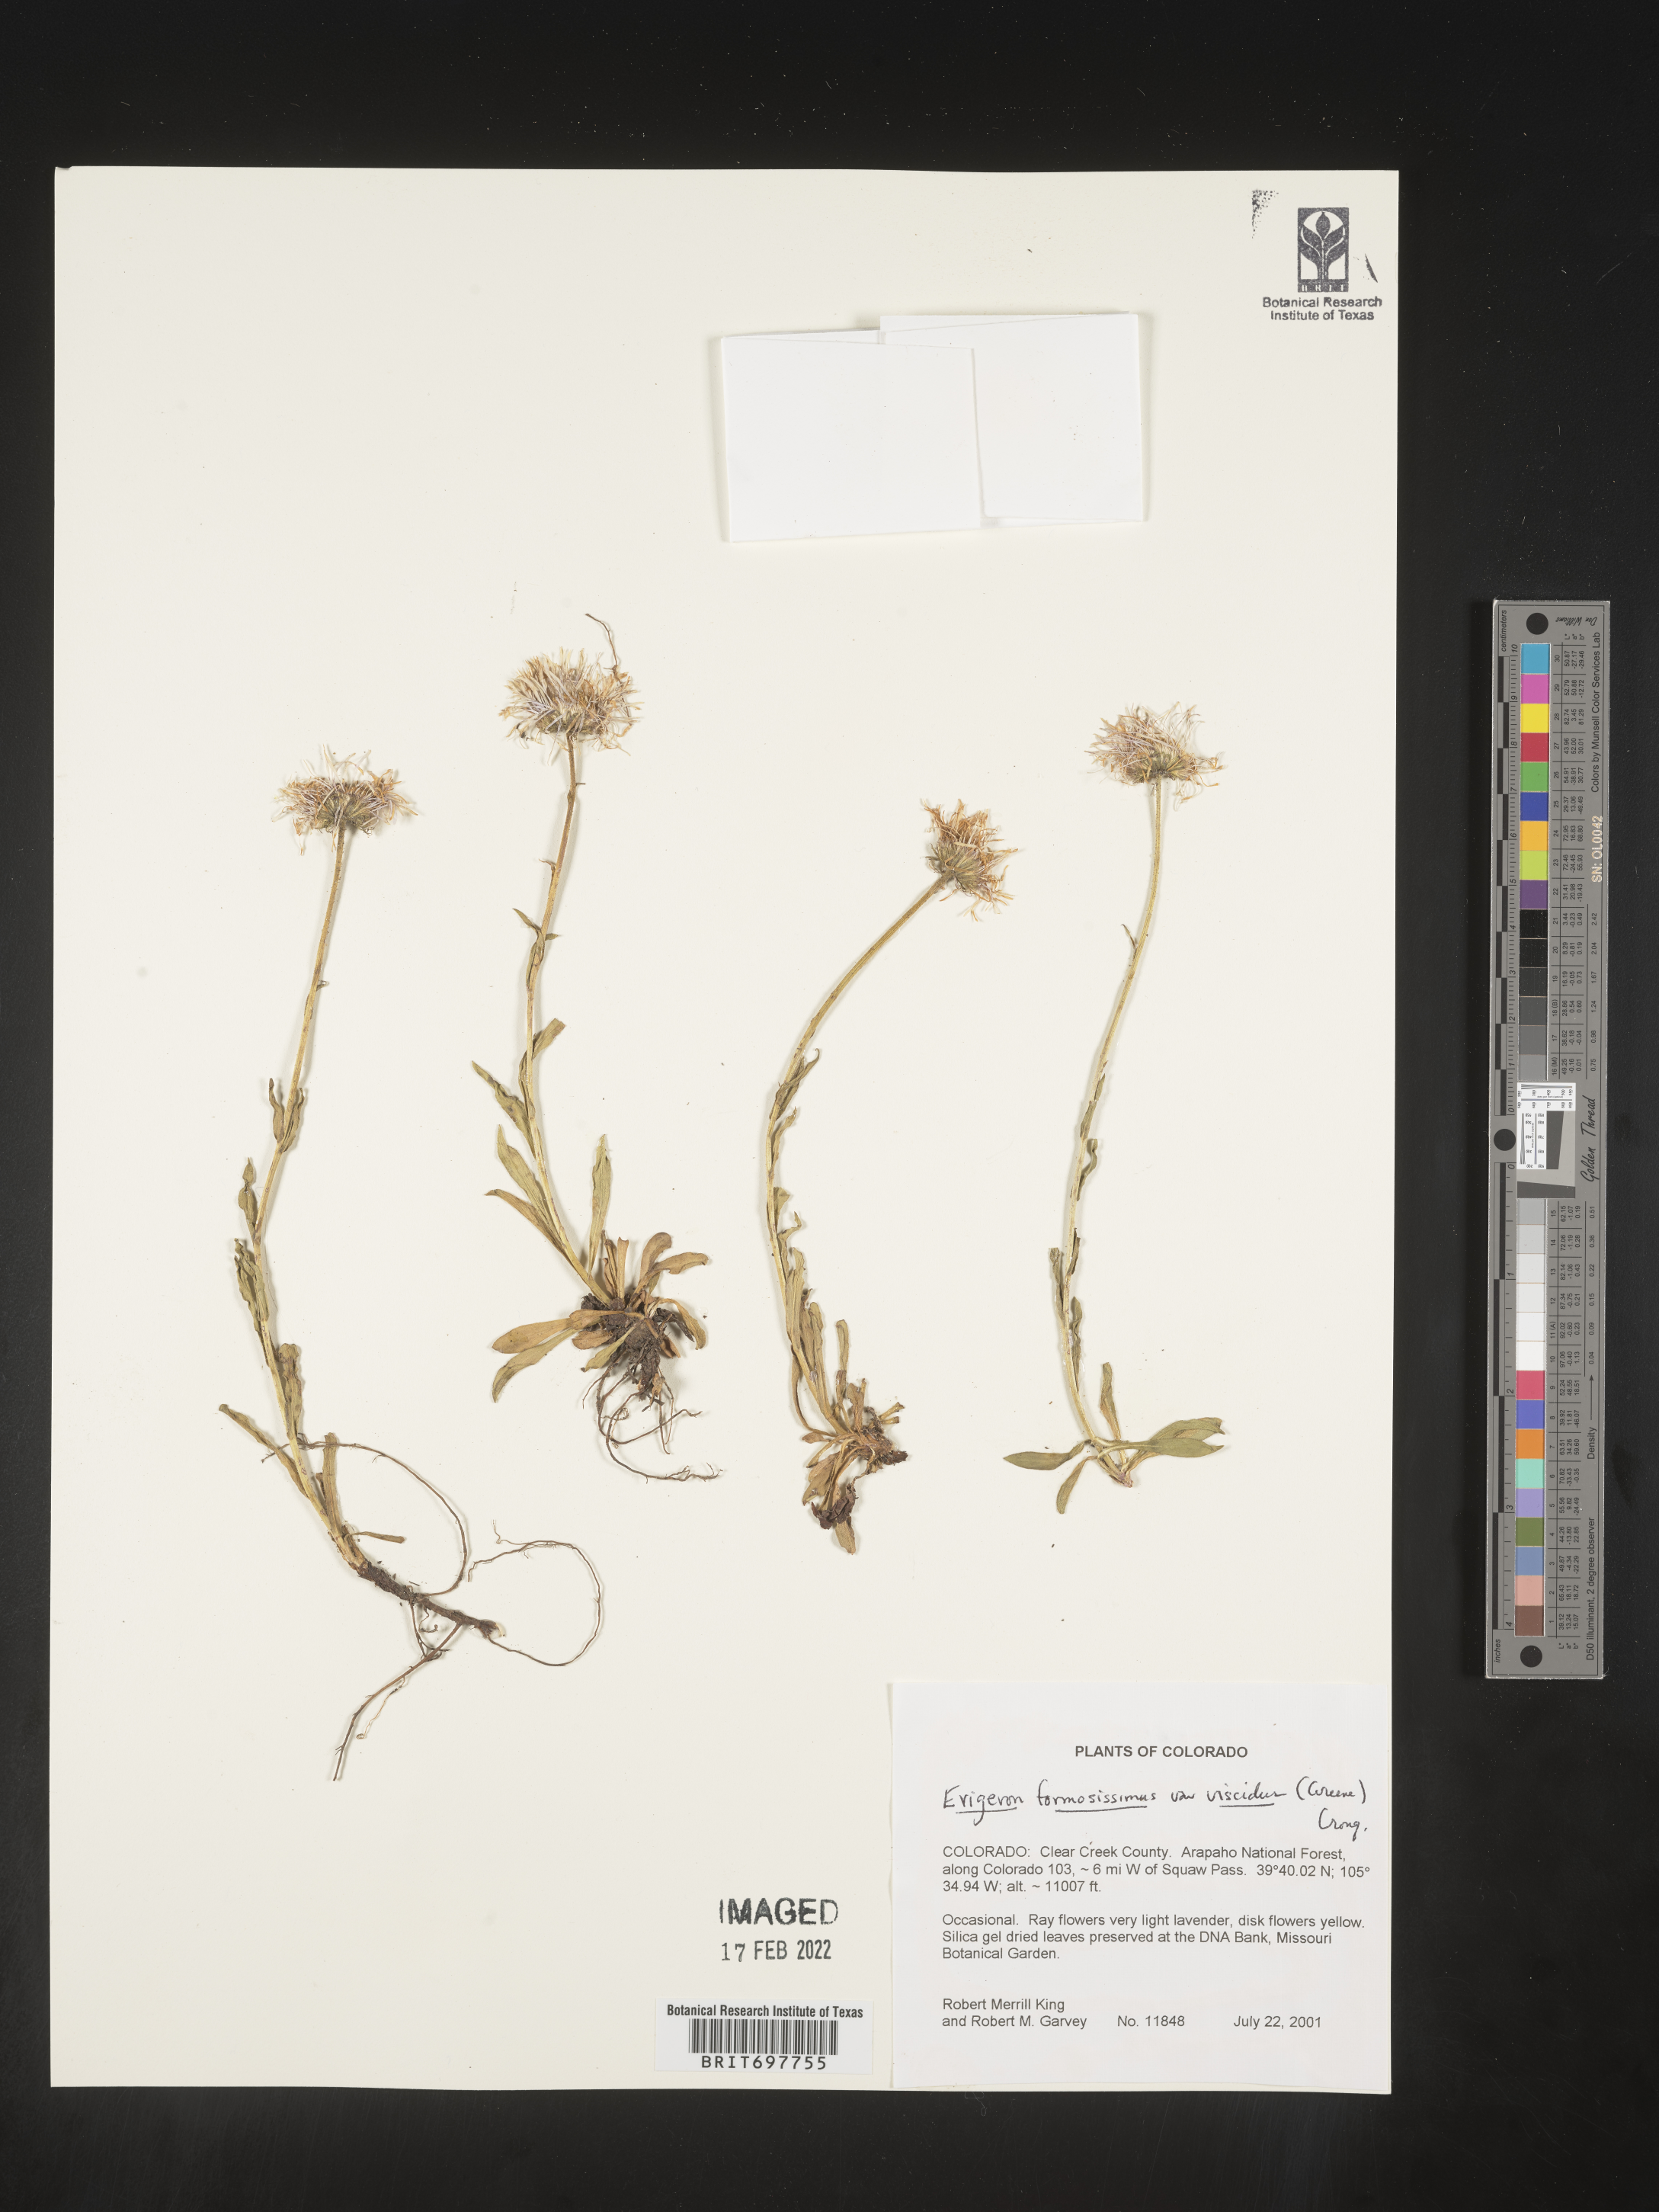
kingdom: Plantae
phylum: Tracheophyta
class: Magnoliopsida
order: Asterales
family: Asteraceae
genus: Erigeron
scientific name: Erigeron formosissimus
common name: Beautiful fleabane
